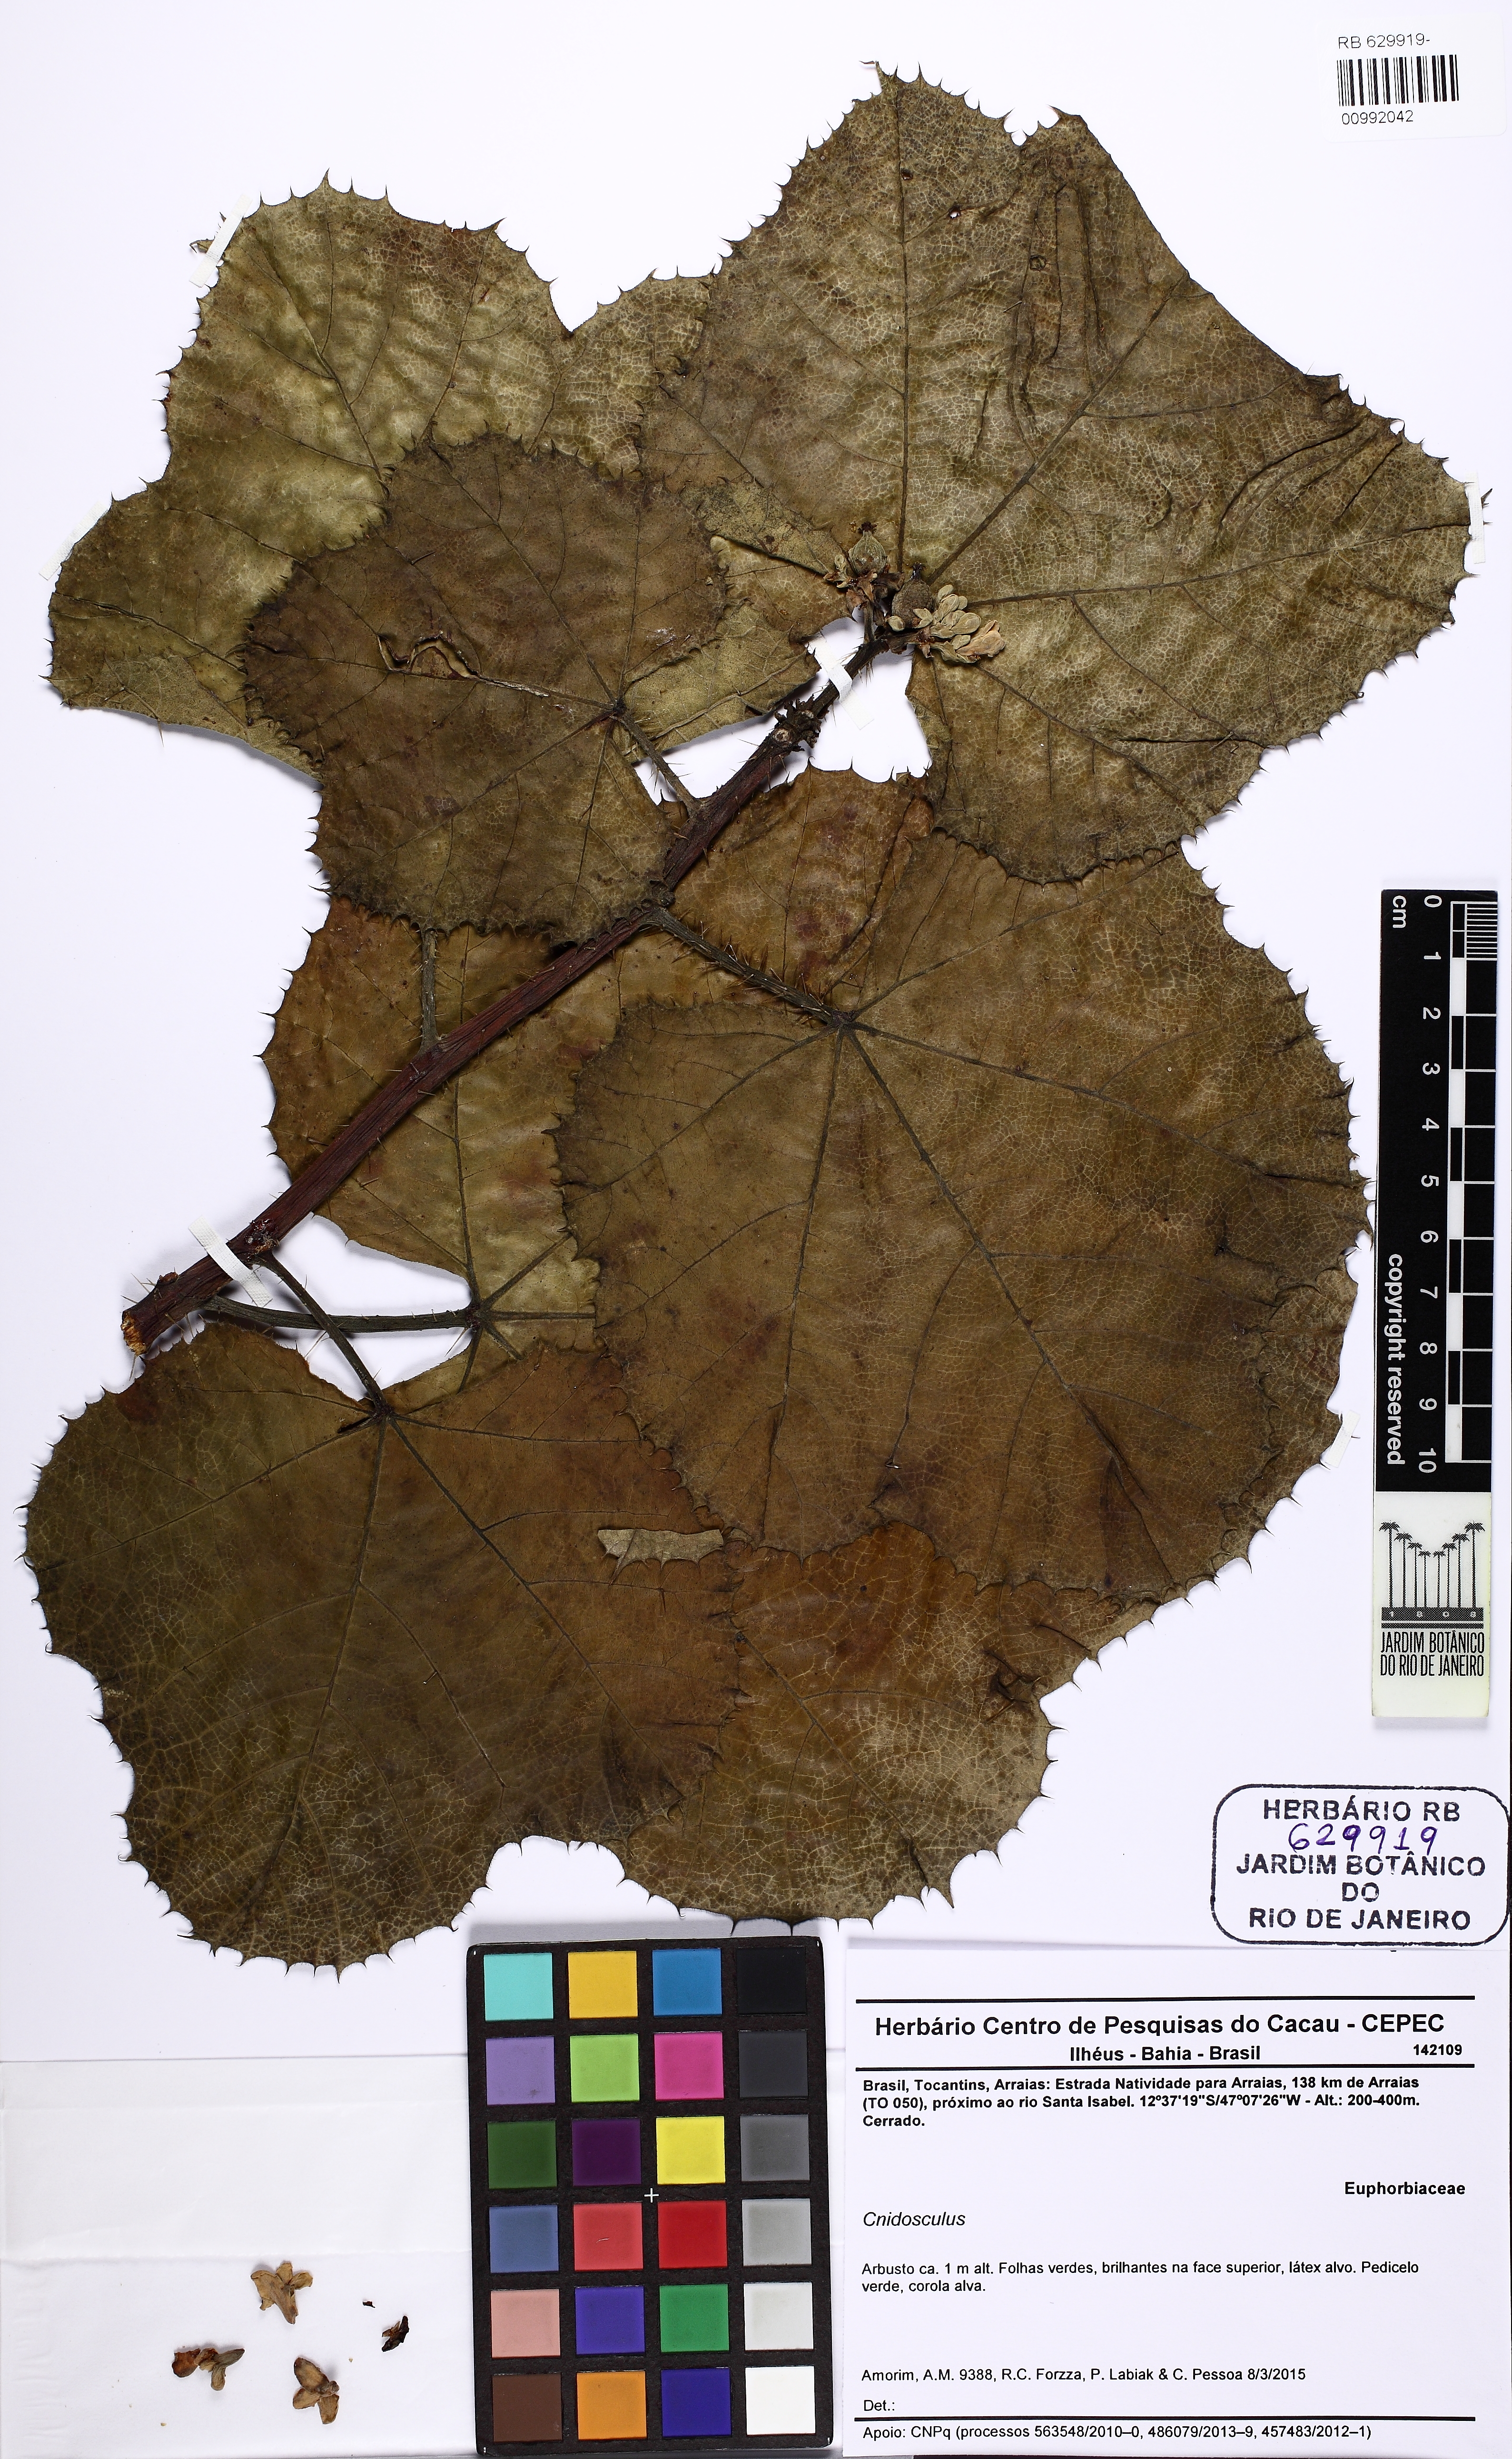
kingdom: Plantae
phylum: Tracheophyta
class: Magnoliopsida
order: Malpighiales
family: Euphorbiaceae
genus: Cnidoscolus
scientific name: Cnidoscolus
